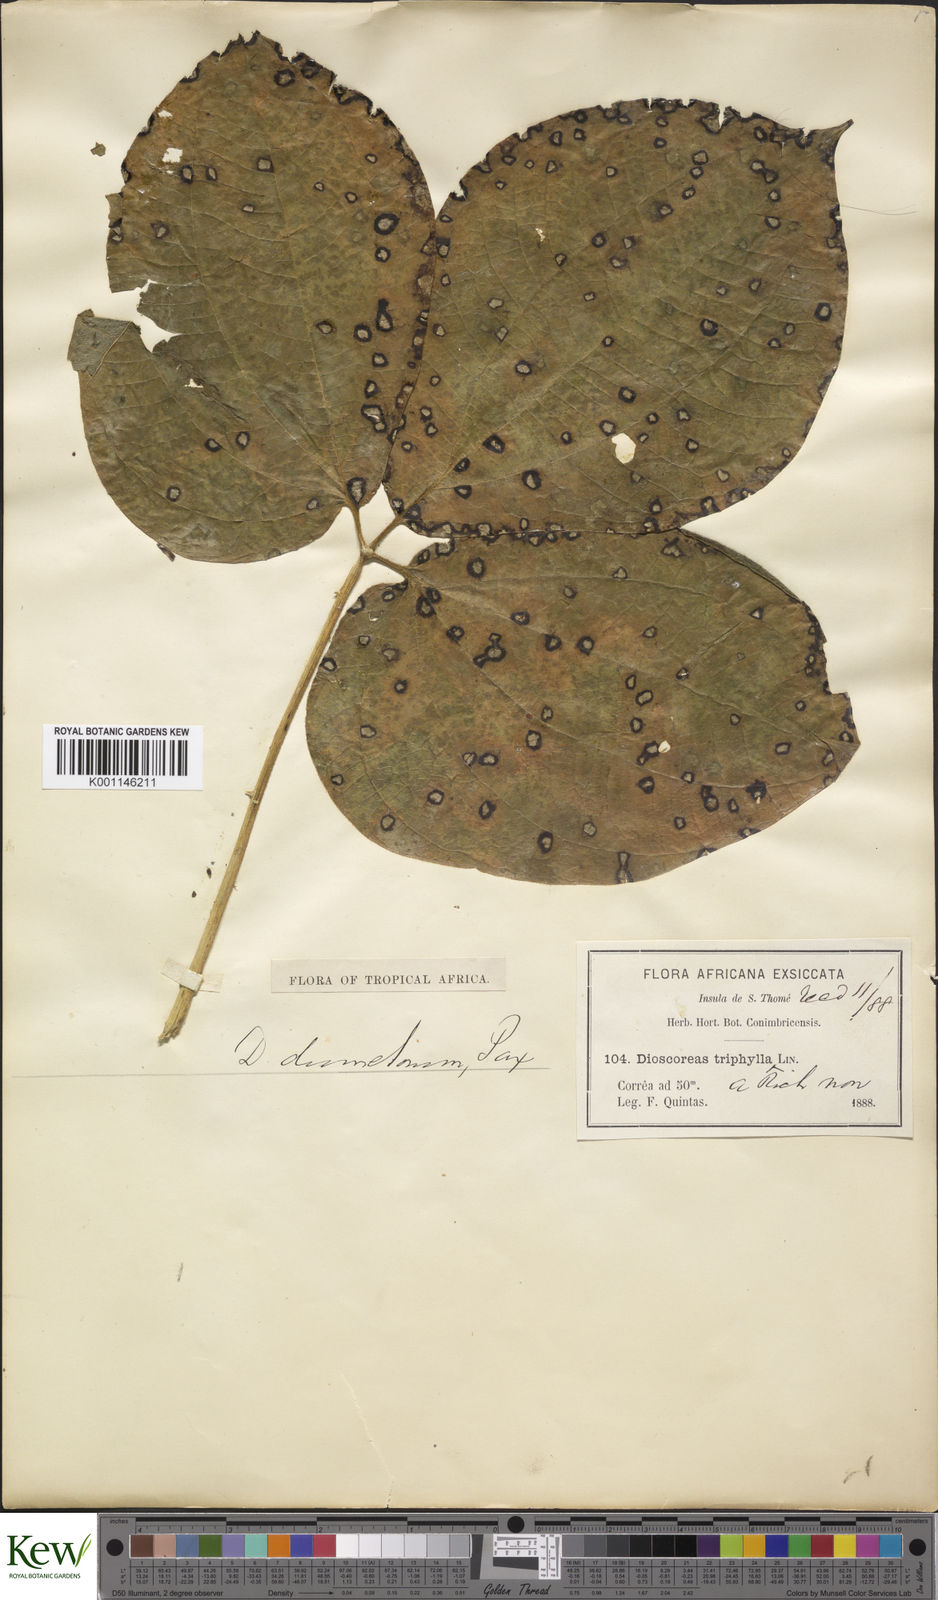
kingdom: Plantae
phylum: Tracheophyta
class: Liliopsida
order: Dioscoreales
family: Dioscoreaceae
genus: Dioscorea
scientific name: Dioscorea dumetorum
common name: African bitter yam
